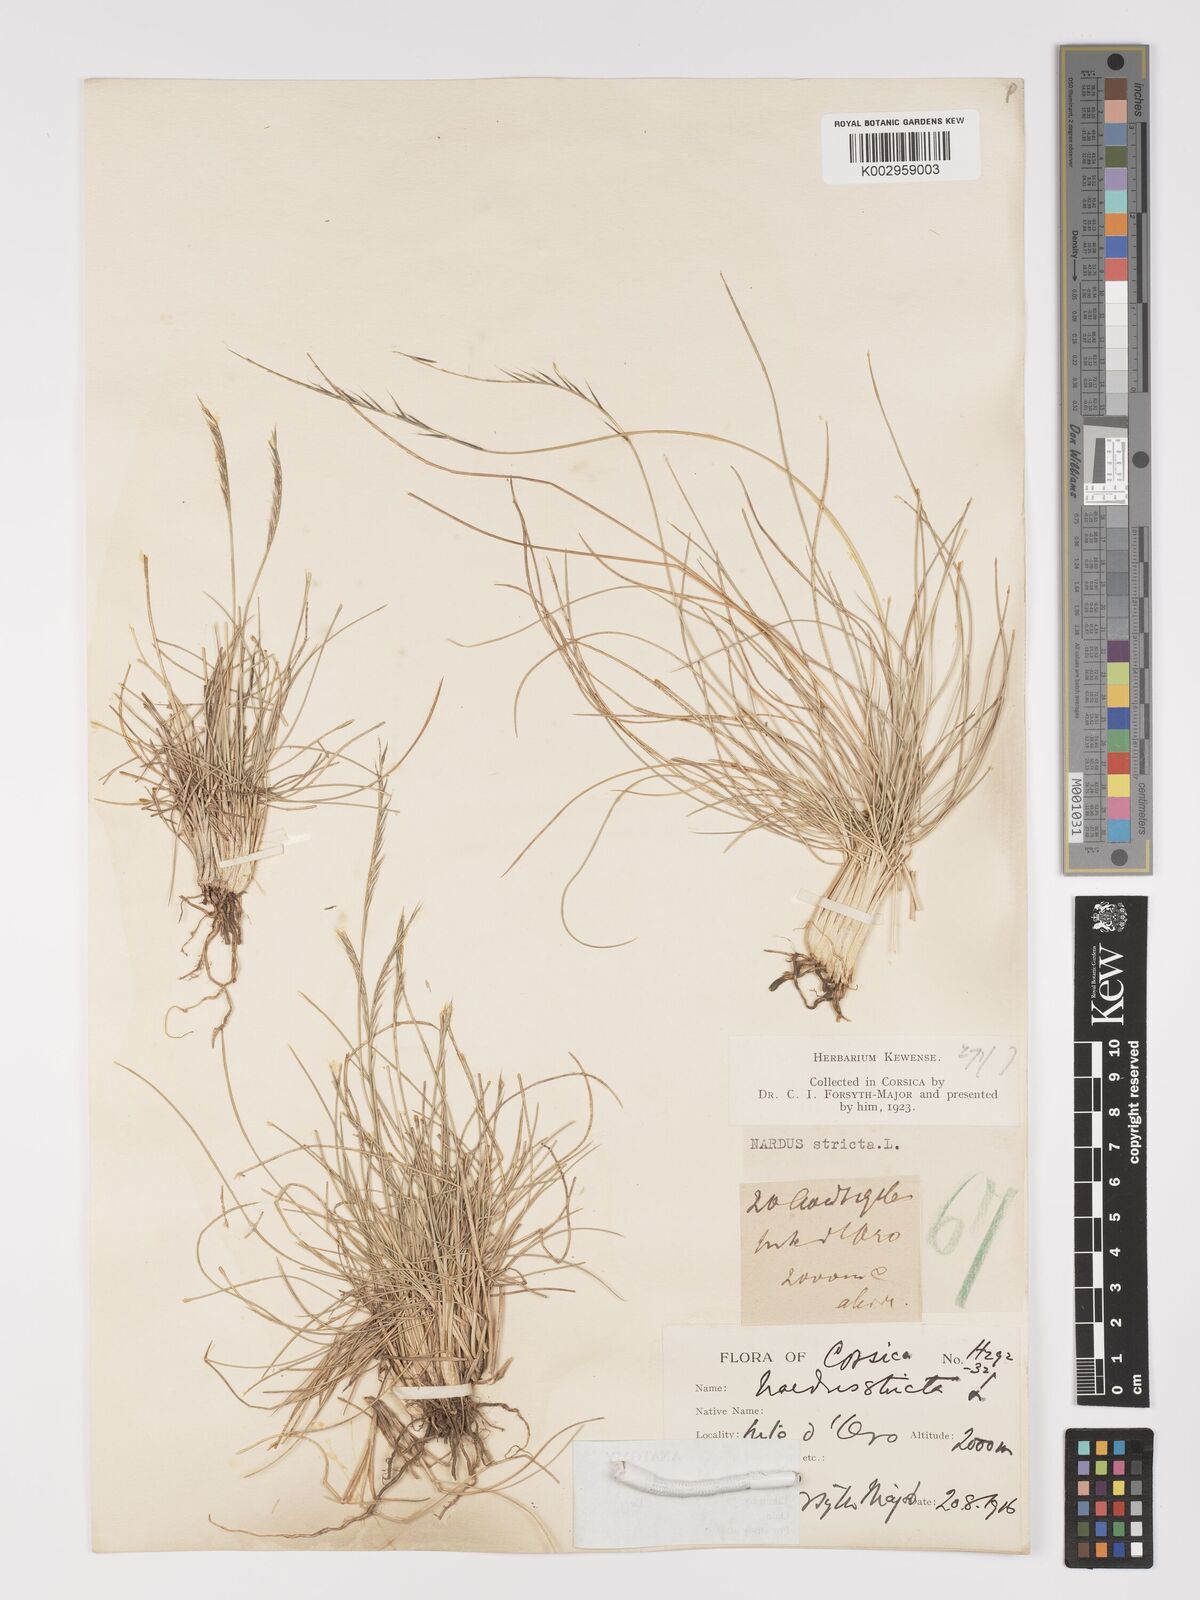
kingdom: Plantae
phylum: Tracheophyta
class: Liliopsida
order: Poales
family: Poaceae
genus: Nardus
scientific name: Nardus stricta
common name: Mat-grass
